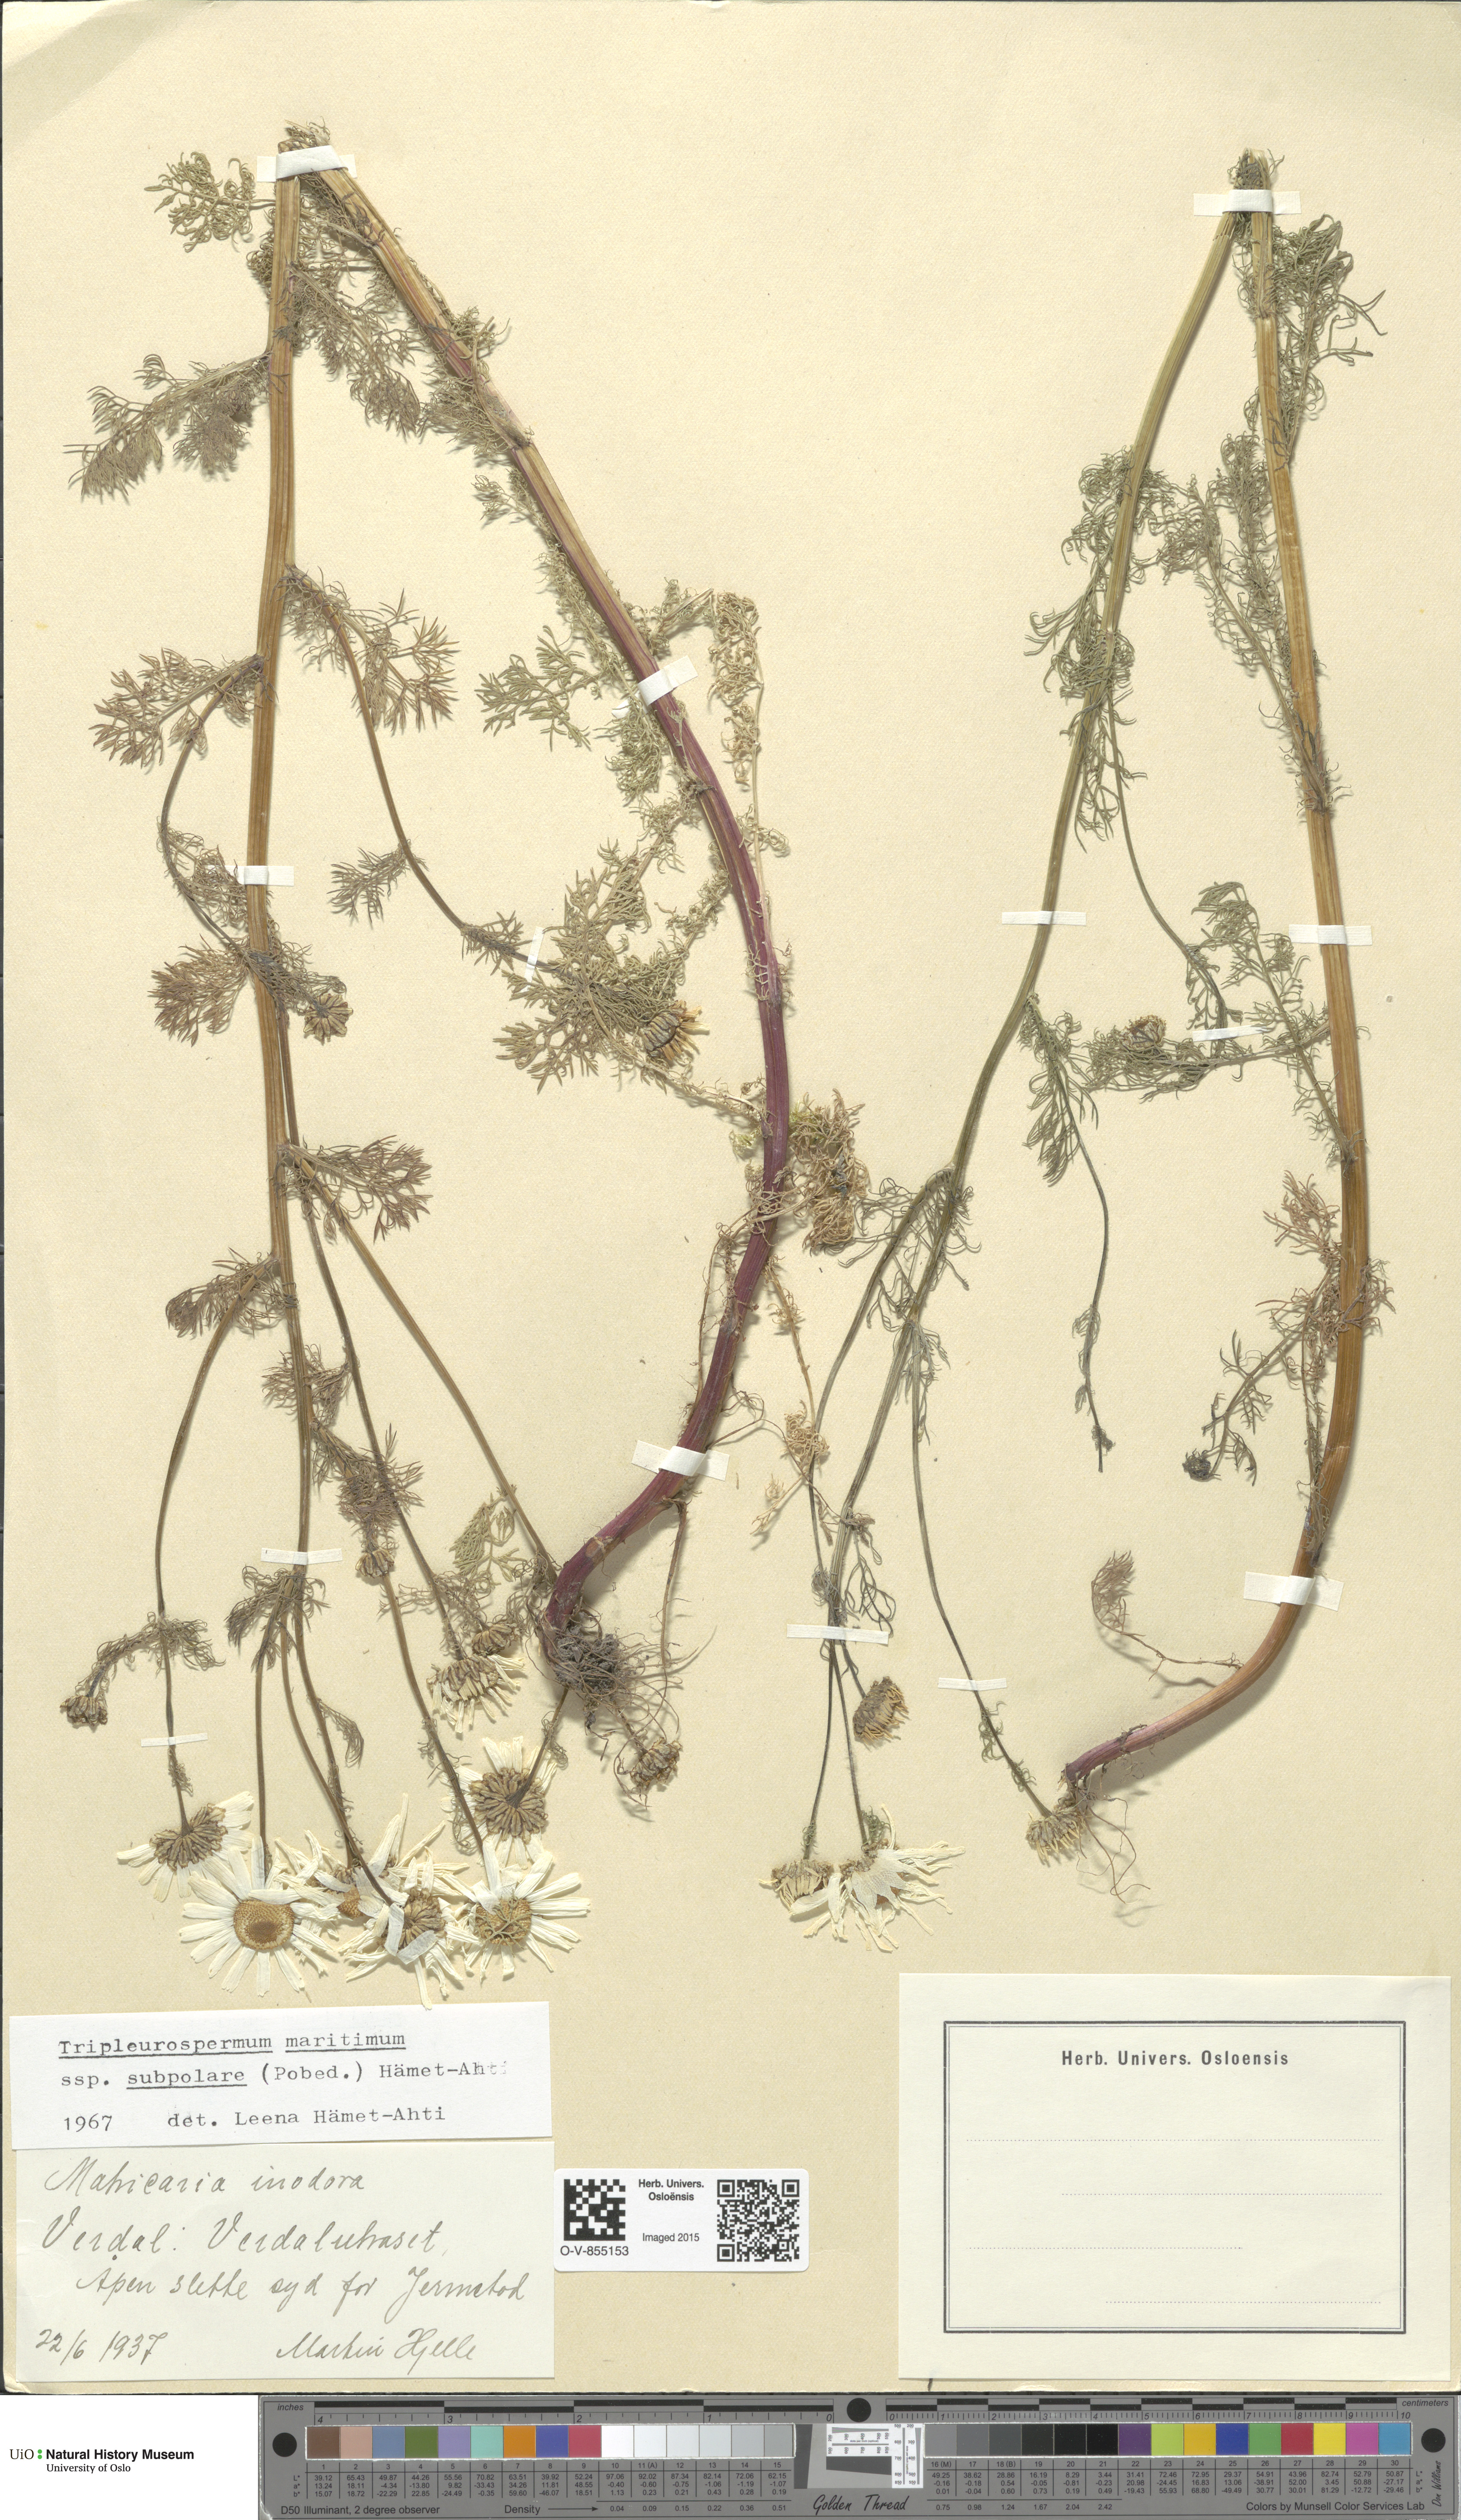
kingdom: Plantae
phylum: Tracheophyta
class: Magnoliopsida
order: Asterales
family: Asteraceae
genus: Tripleurospermum
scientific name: Tripleurospermum subpolare
